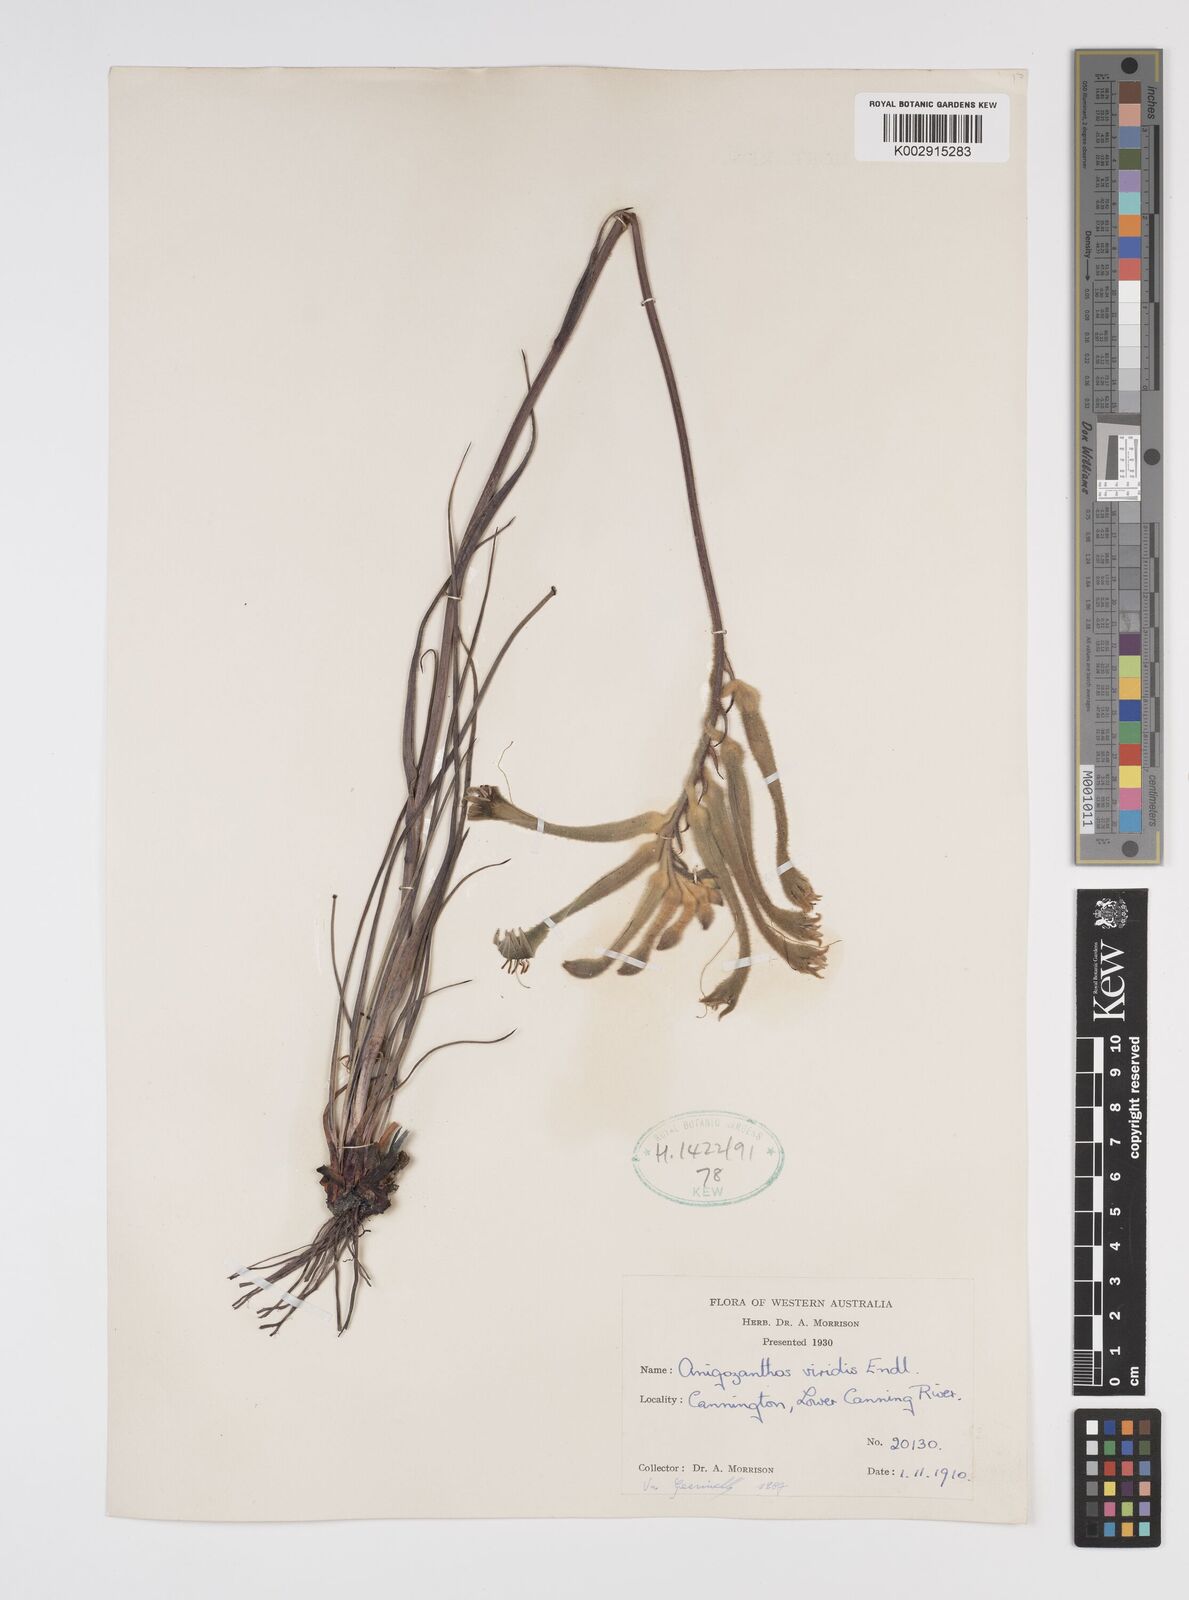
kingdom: Plantae
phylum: Tracheophyta
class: Liliopsida
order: Commelinales
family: Haemodoraceae
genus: Anigozanthos
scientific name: Anigozanthos viridis
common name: Green kangaroo-paw
